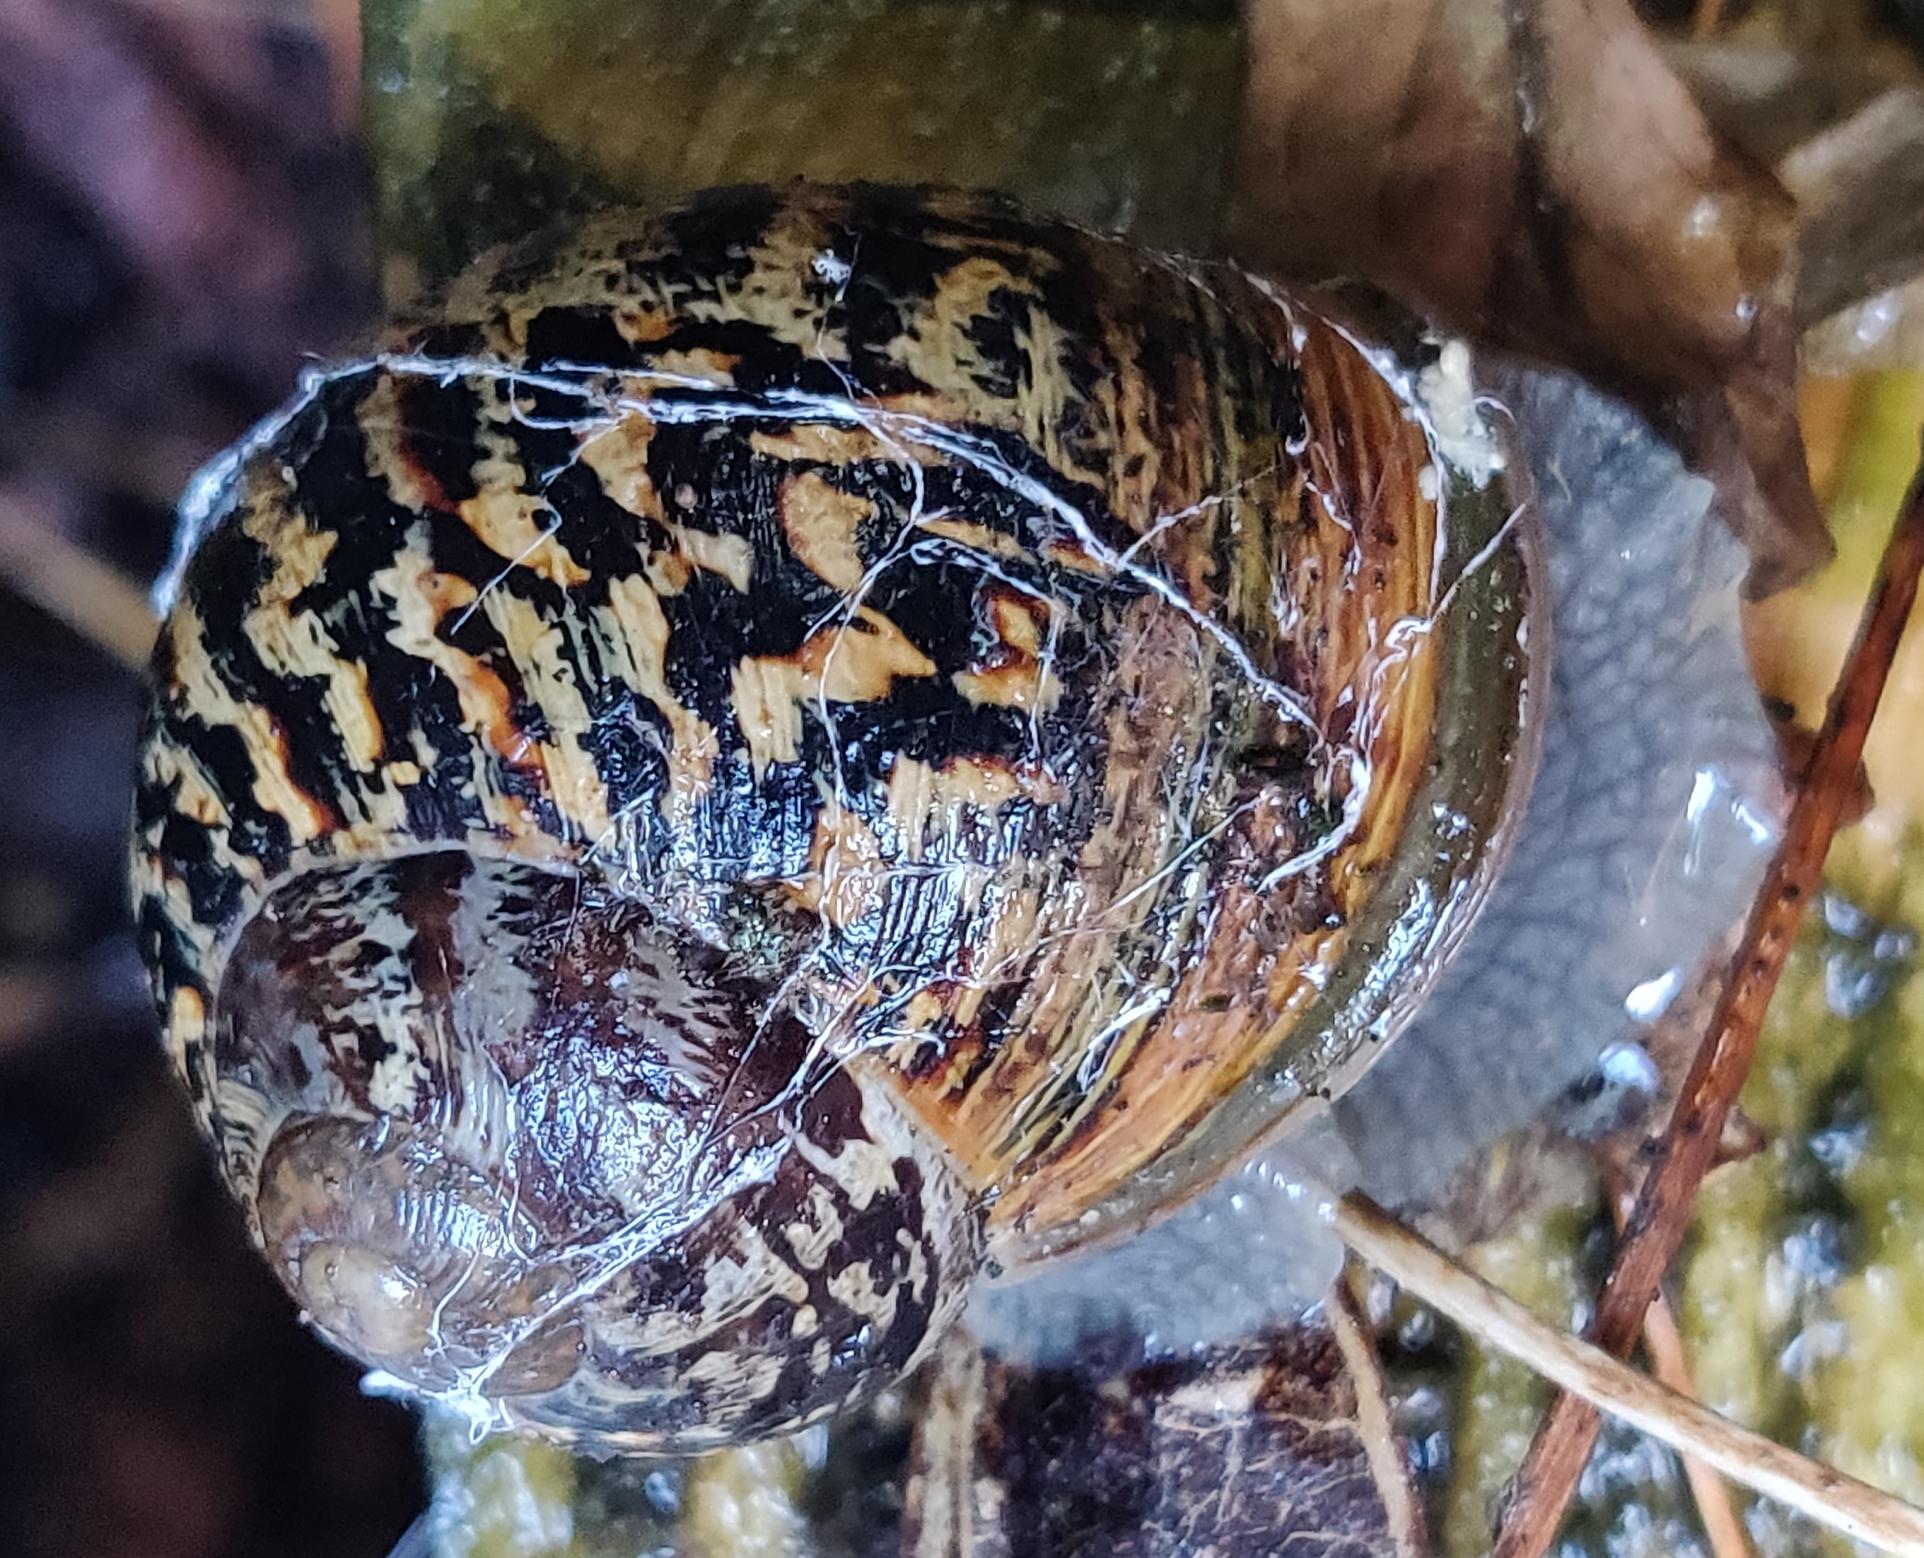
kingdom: Animalia
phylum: Mollusca
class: Gastropoda
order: Stylommatophora
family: Helicidae
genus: Cornu
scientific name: Cornu aspersum
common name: Plettet voldsnegl
